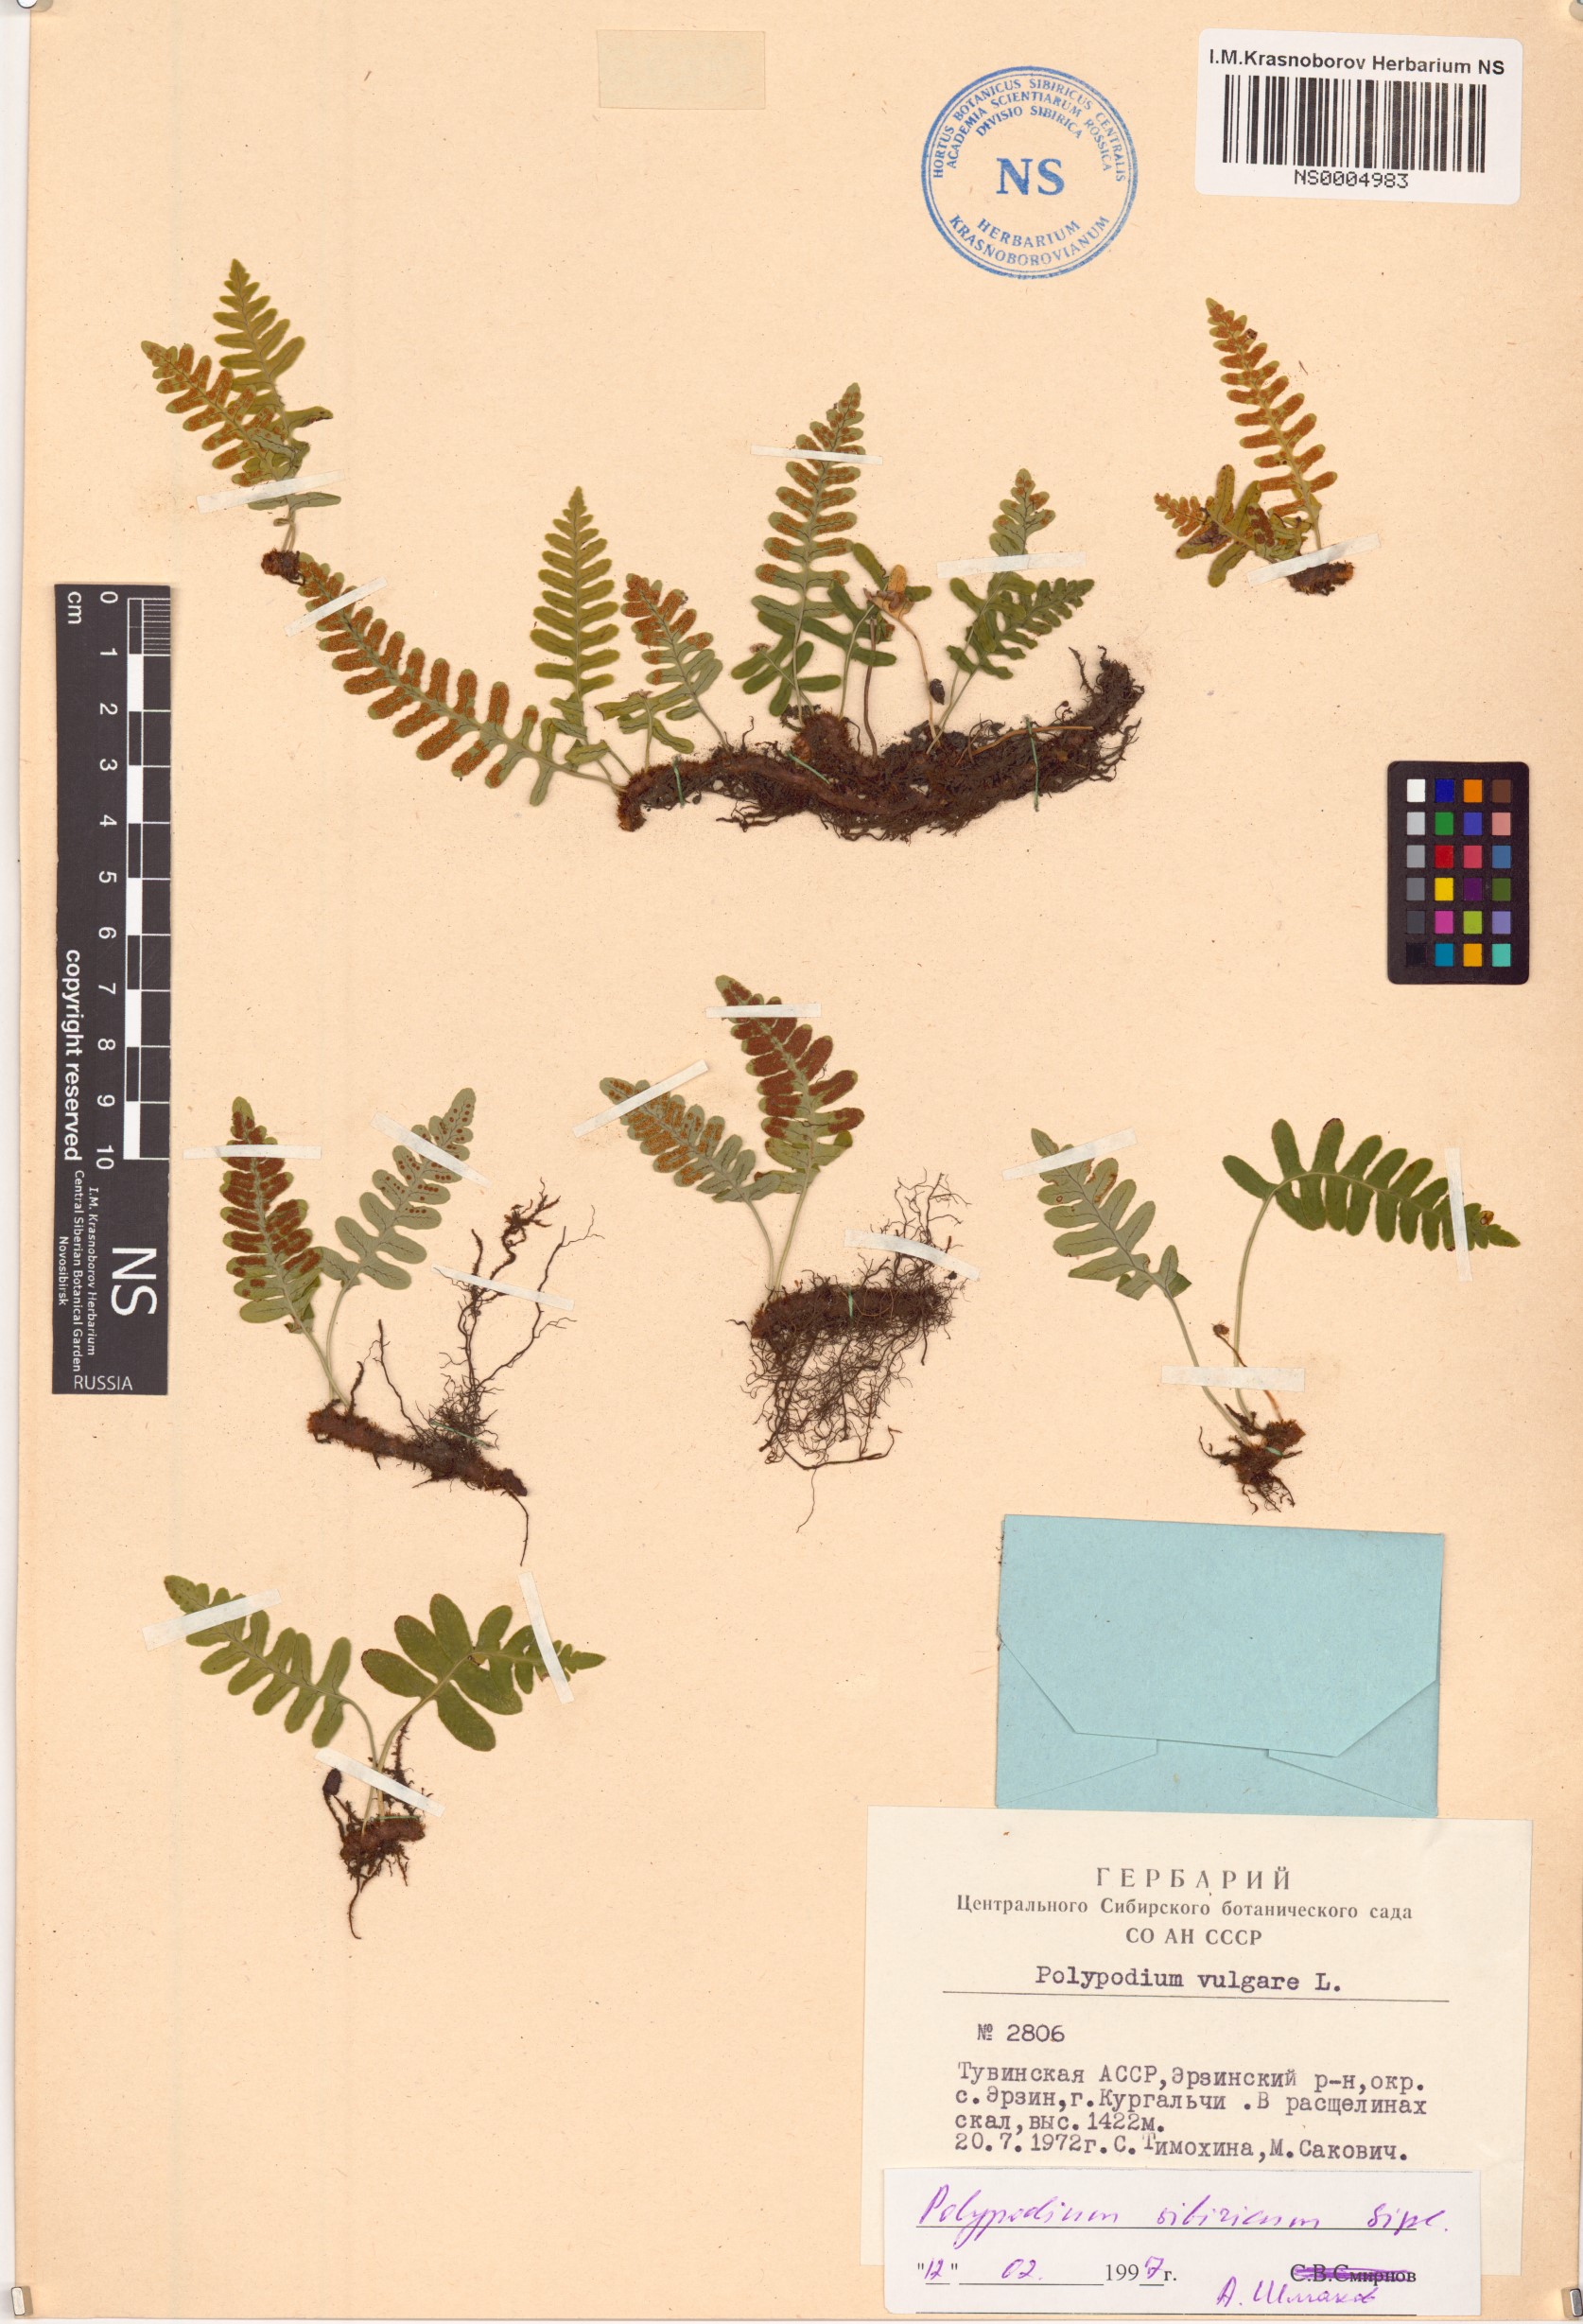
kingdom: Plantae
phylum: Tracheophyta
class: Polypodiopsida
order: Polypodiales
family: Polypodiaceae
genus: Polypodium
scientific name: Polypodium sibiricum
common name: Siberian polypody
